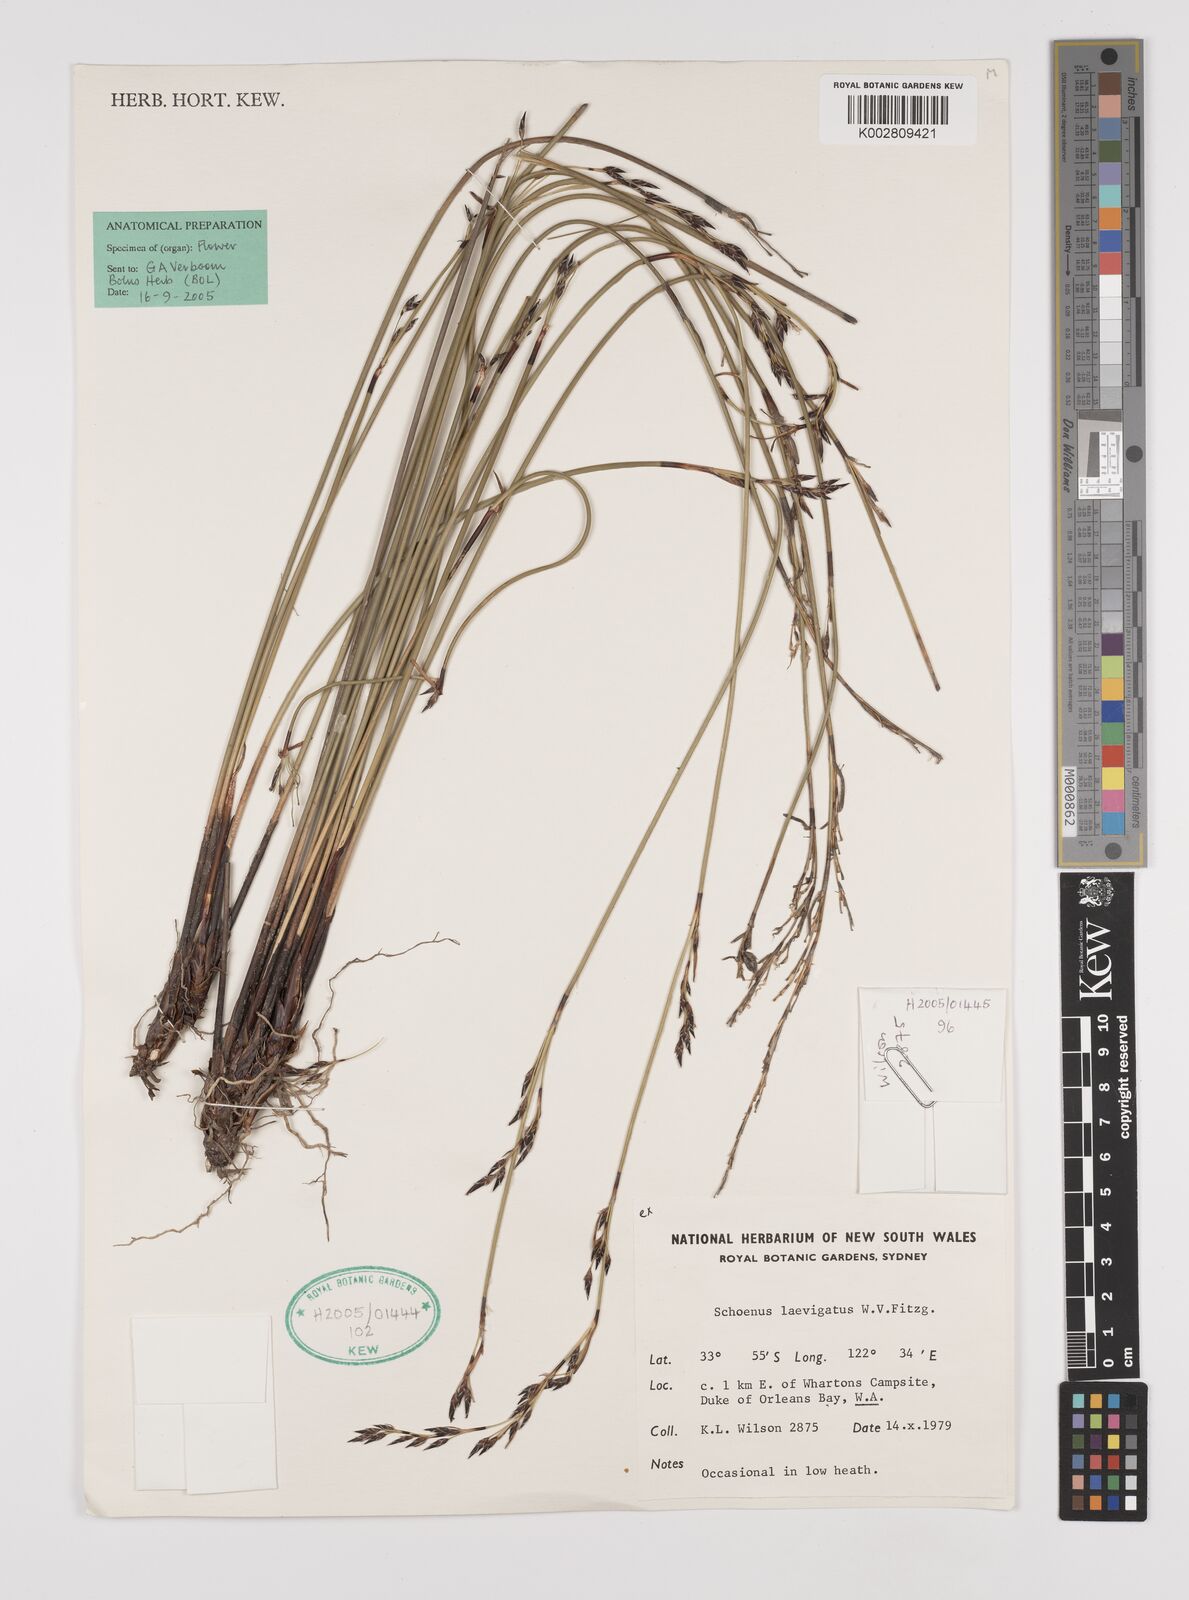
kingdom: Plantae
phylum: Tracheophyta
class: Liliopsida
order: Poales
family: Cyperaceae
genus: Schoenus
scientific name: Schoenus laevigatus
